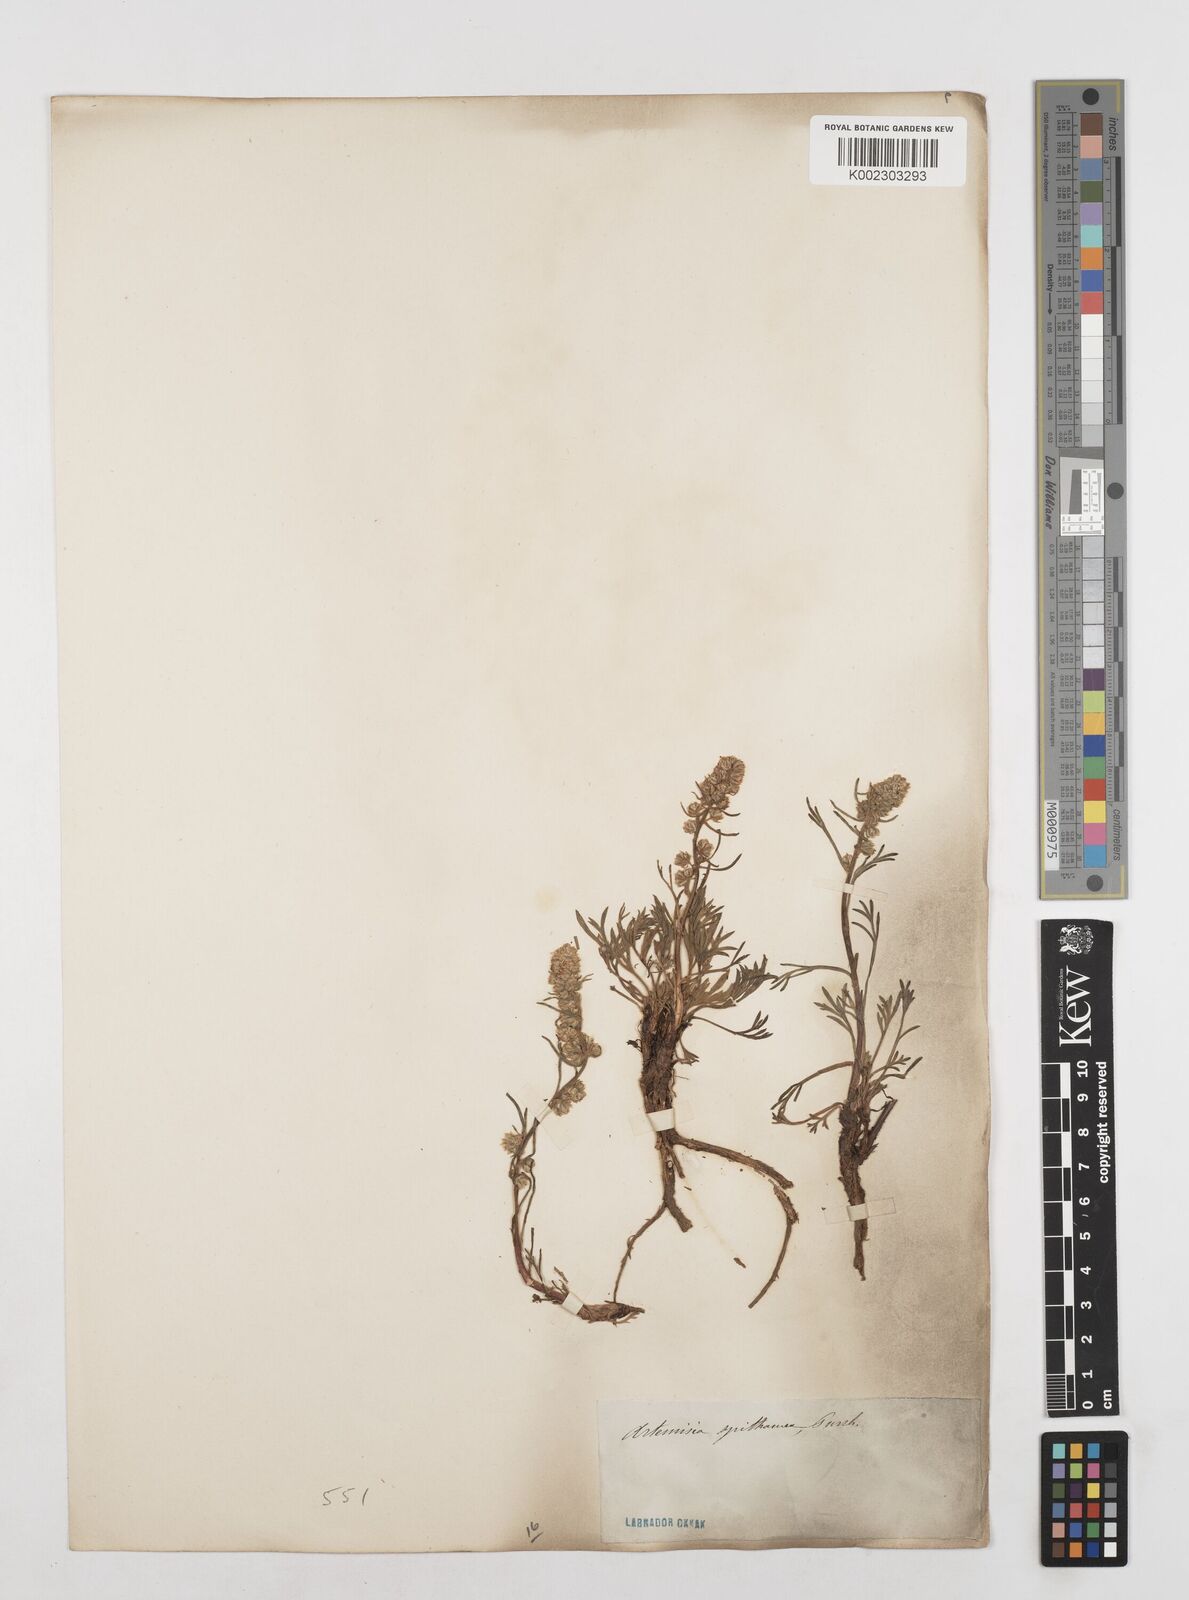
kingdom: Plantae
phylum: Tracheophyta
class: Magnoliopsida
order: Asterales
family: Asteraceae
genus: Artemisia
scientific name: Artemisia borealis
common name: Boreal sage
